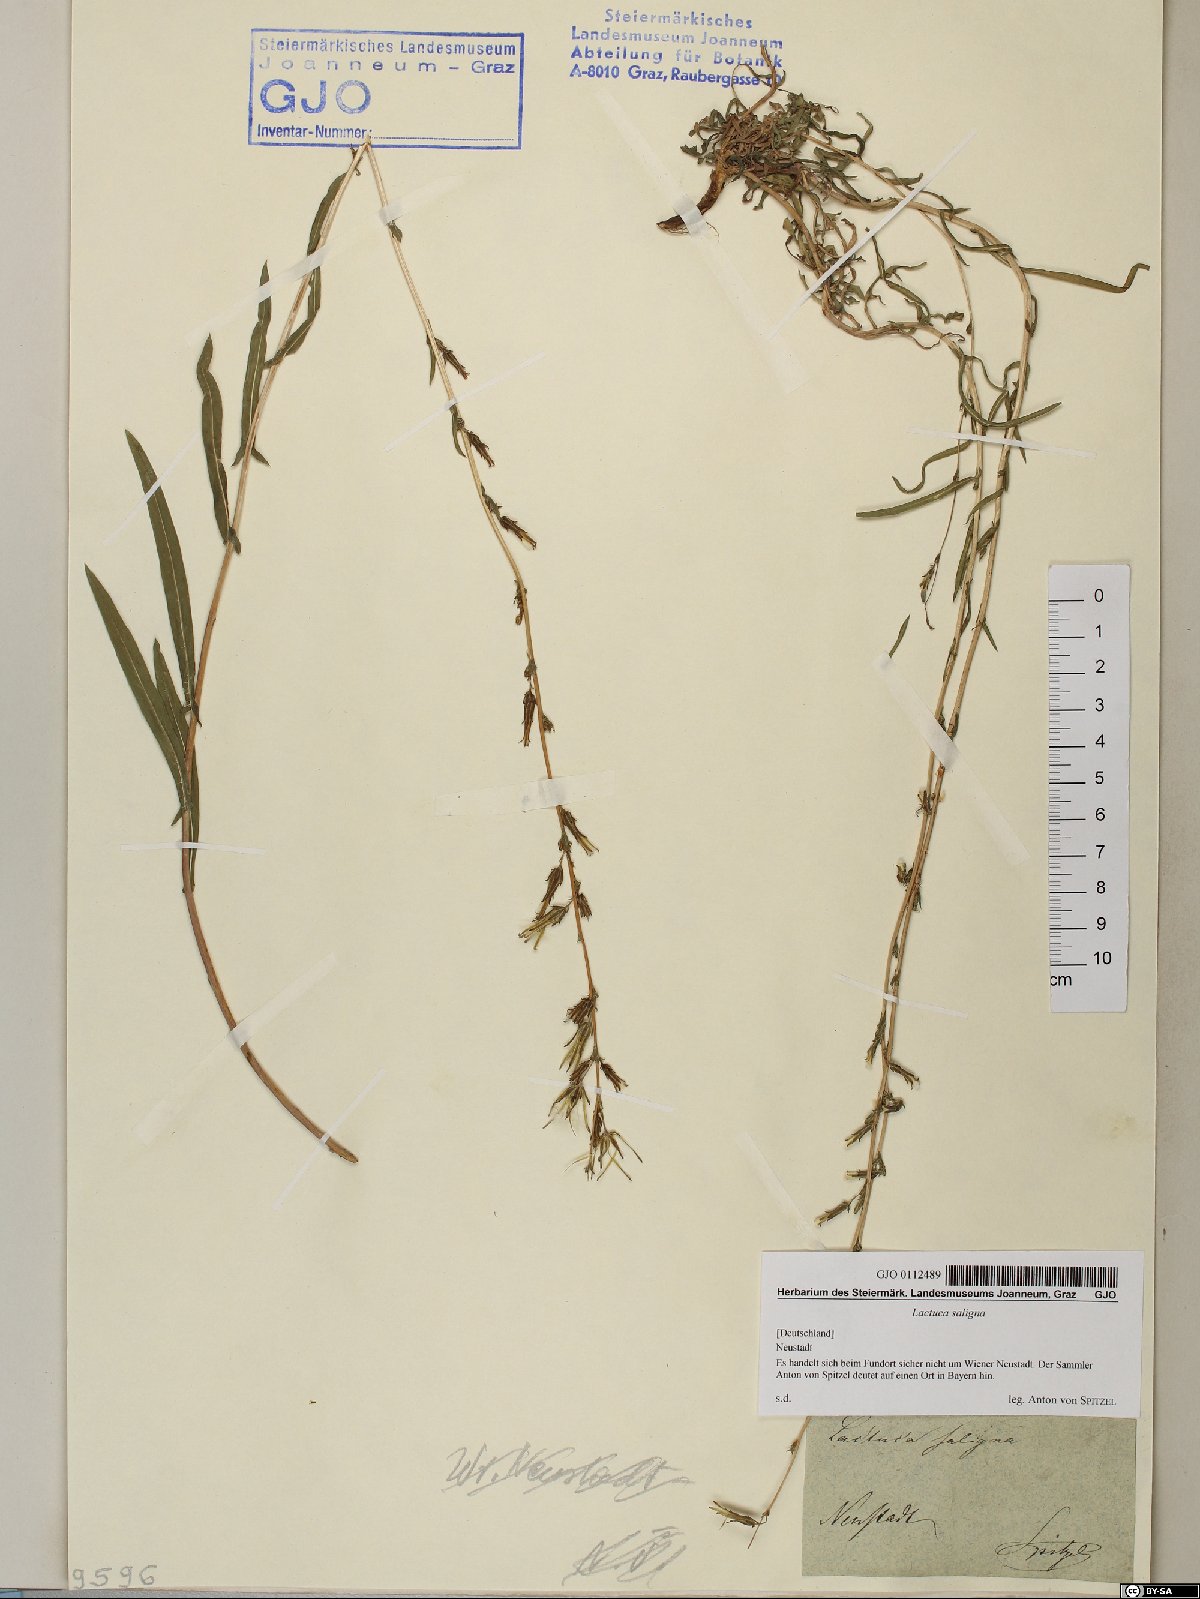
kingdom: Plantae
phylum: Tracheophyta
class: Magnoliopsida
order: Asterales
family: Asteraceae
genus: Lactuca
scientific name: Lactuca saligna
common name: Wild lettuce
